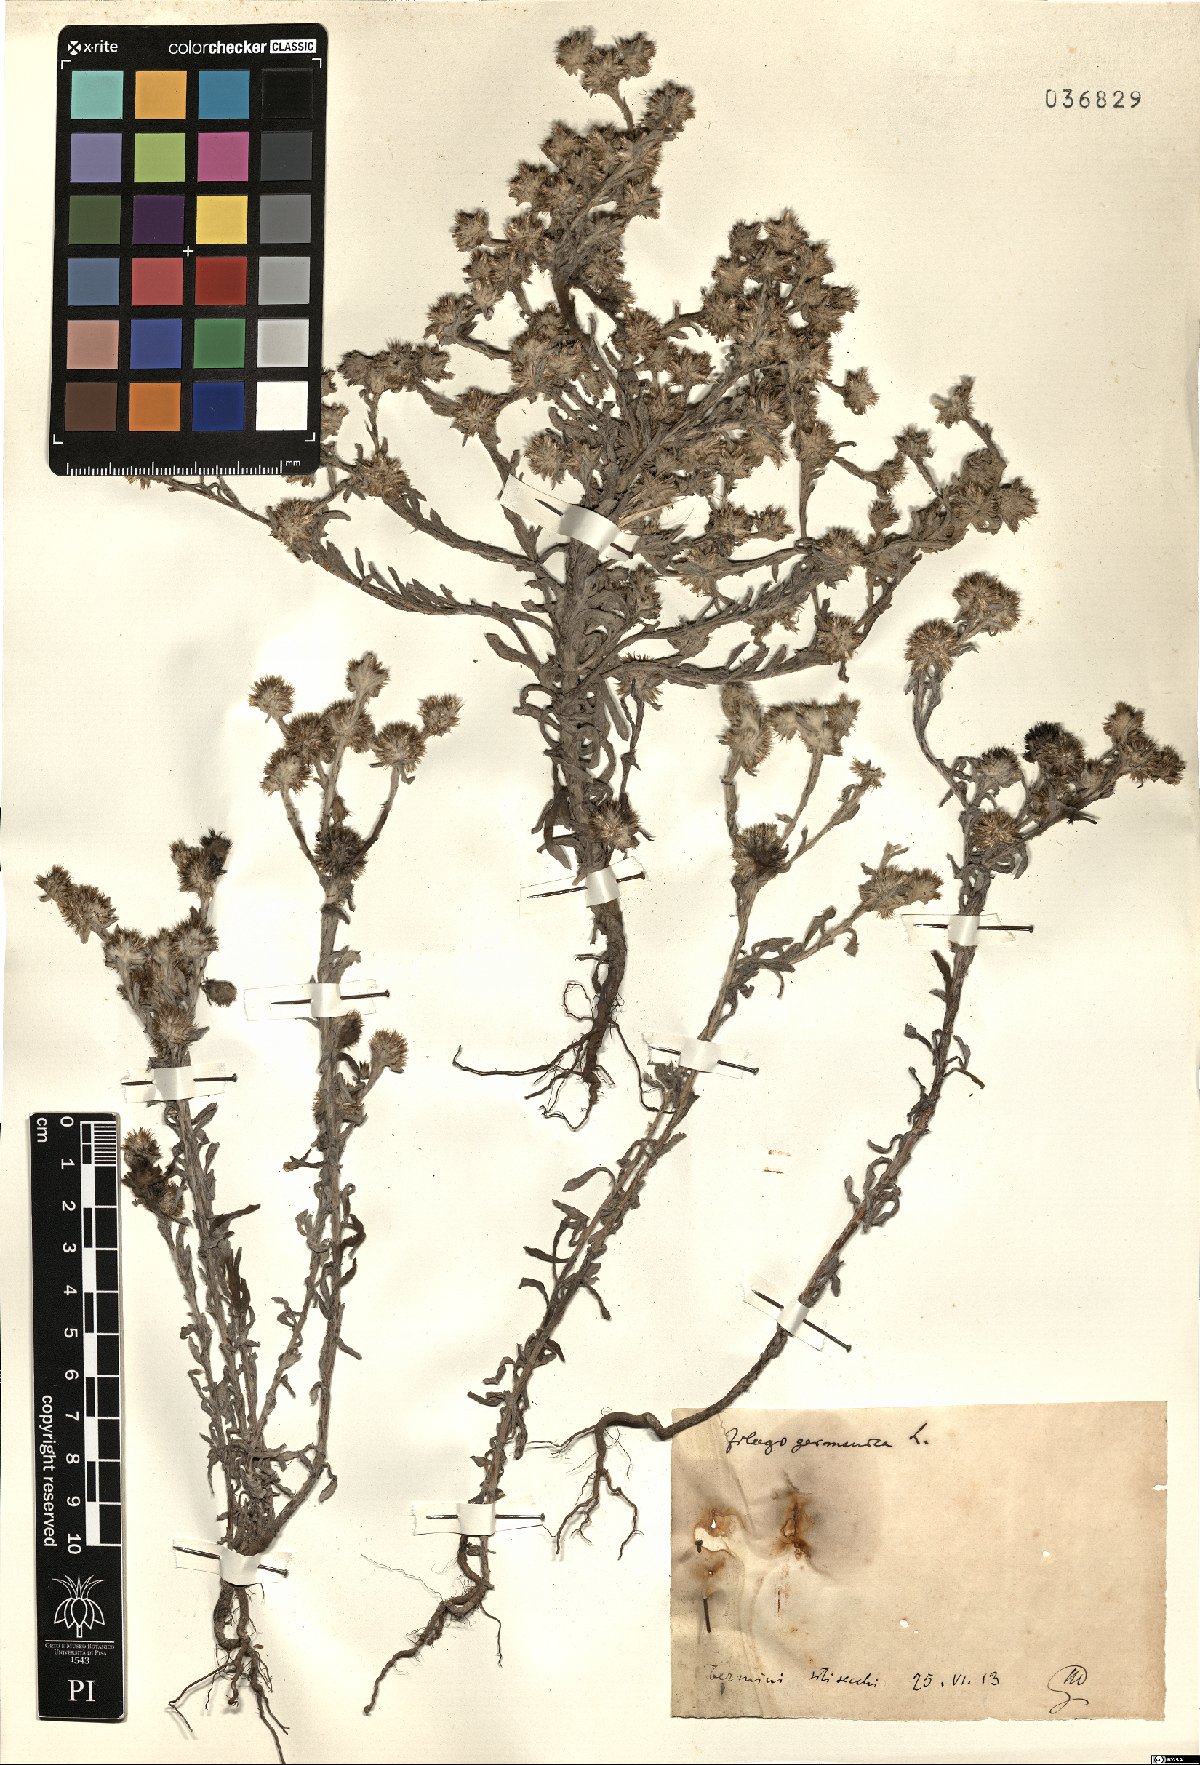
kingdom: Plantae
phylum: Tracheophyta
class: Magnoliopsida
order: Asterales
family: Asteraceae
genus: Filago
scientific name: Filago germanica
